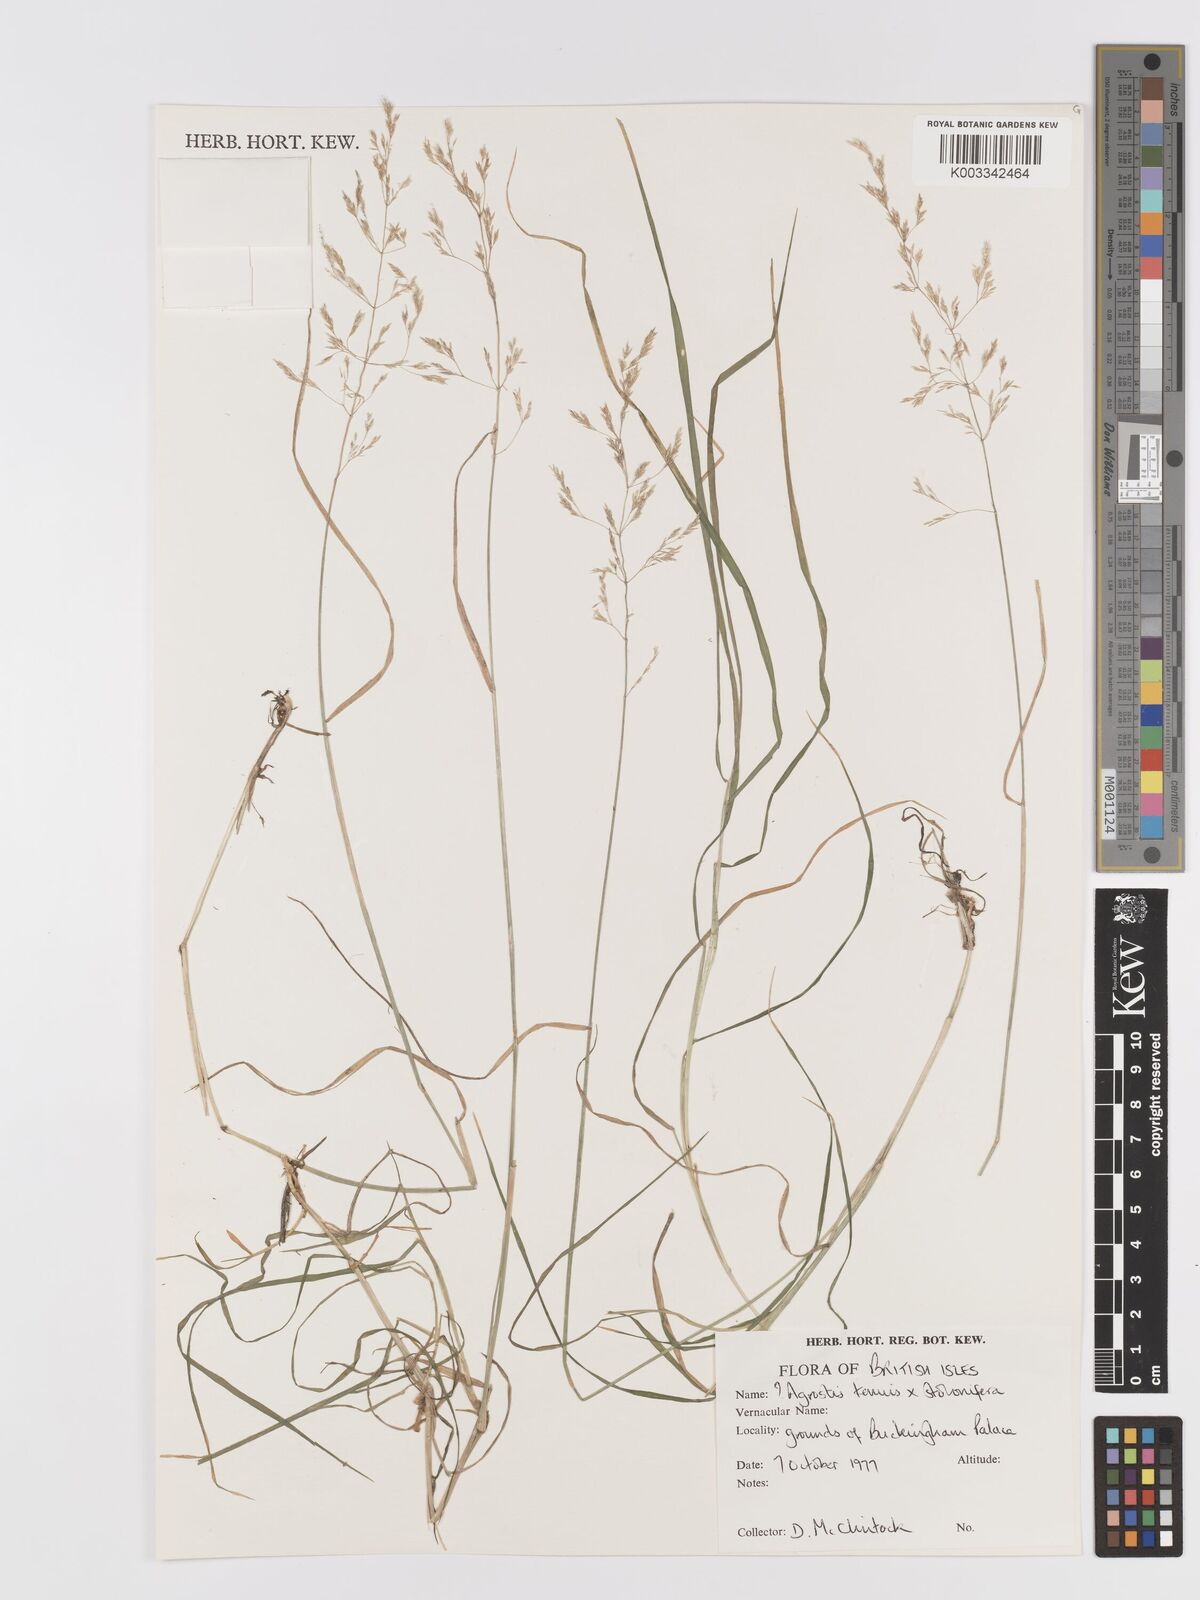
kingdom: Plantae
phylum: Tracheophyta
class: Liliopsida
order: Poales
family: Poaceae
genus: Agrostis
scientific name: Agrostis capillaris
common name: Colonial bentgrass
